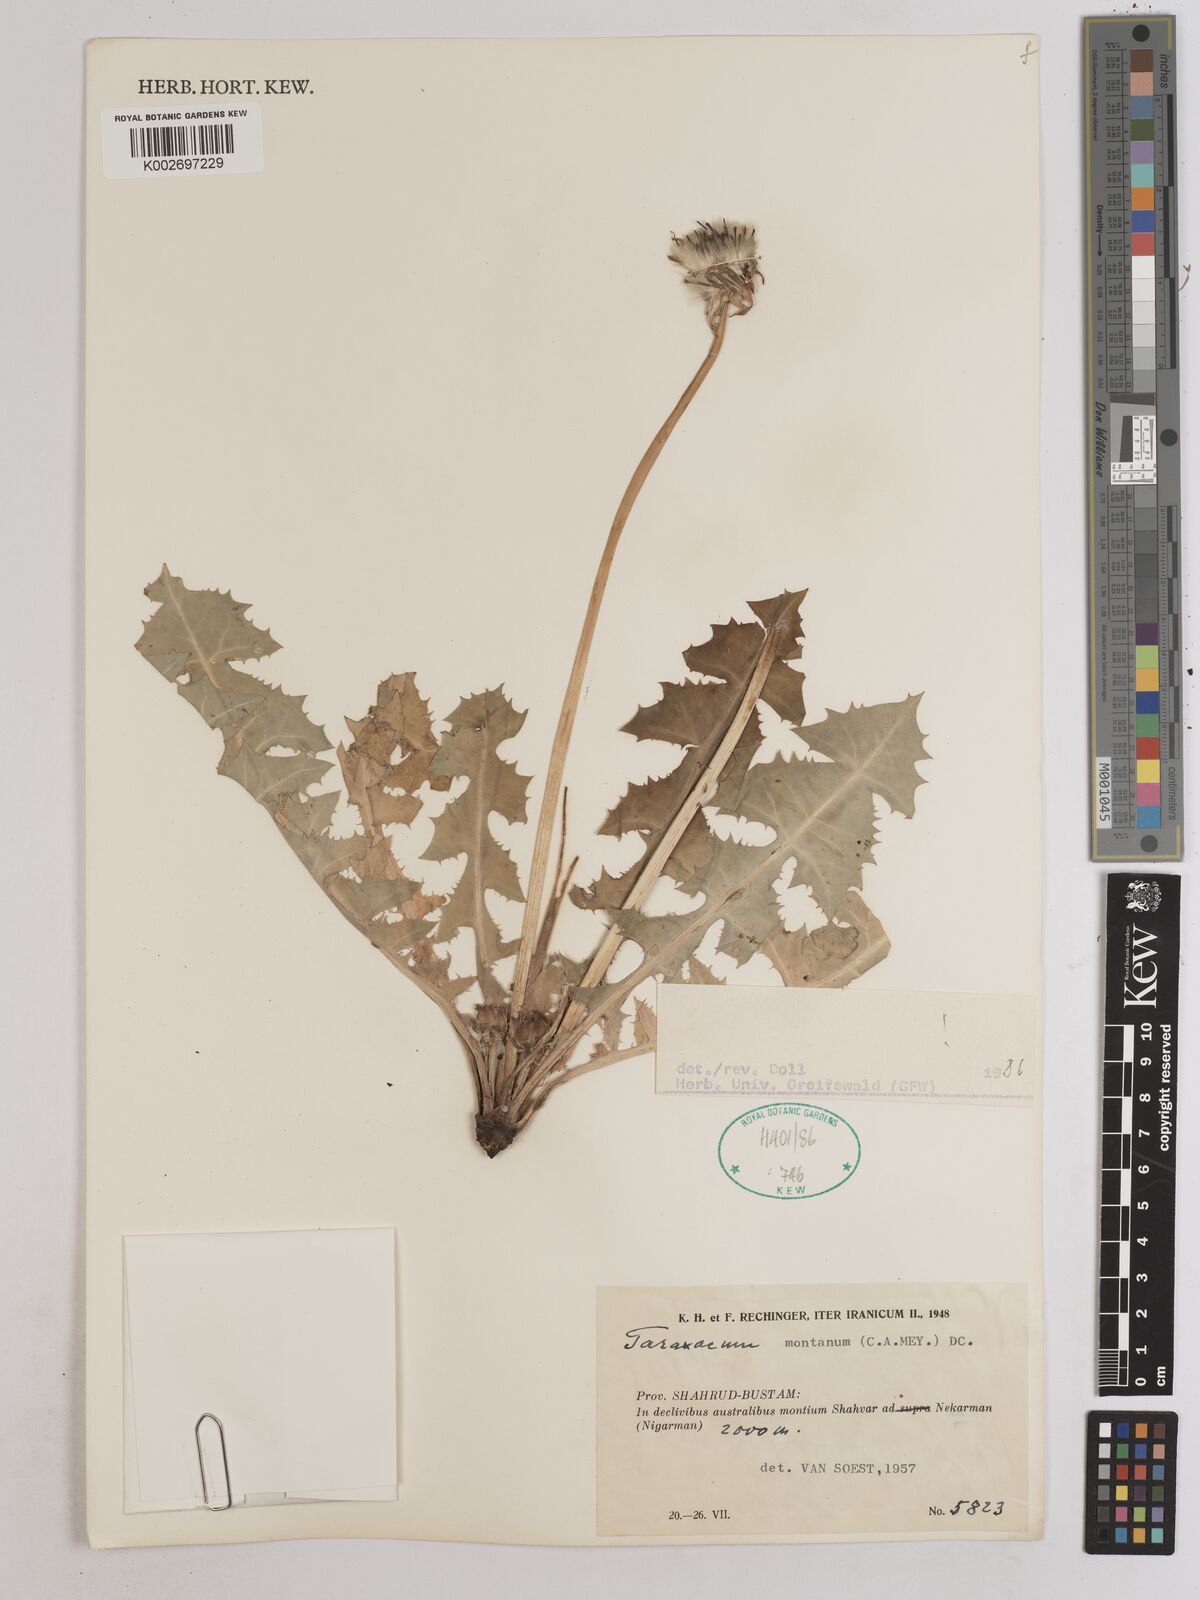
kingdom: Plantae
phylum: Tracheophyta
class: Magnoliopsida
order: Asterales
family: Asteraceae
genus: Taraxacum
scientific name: Taraxacum sonchoides
